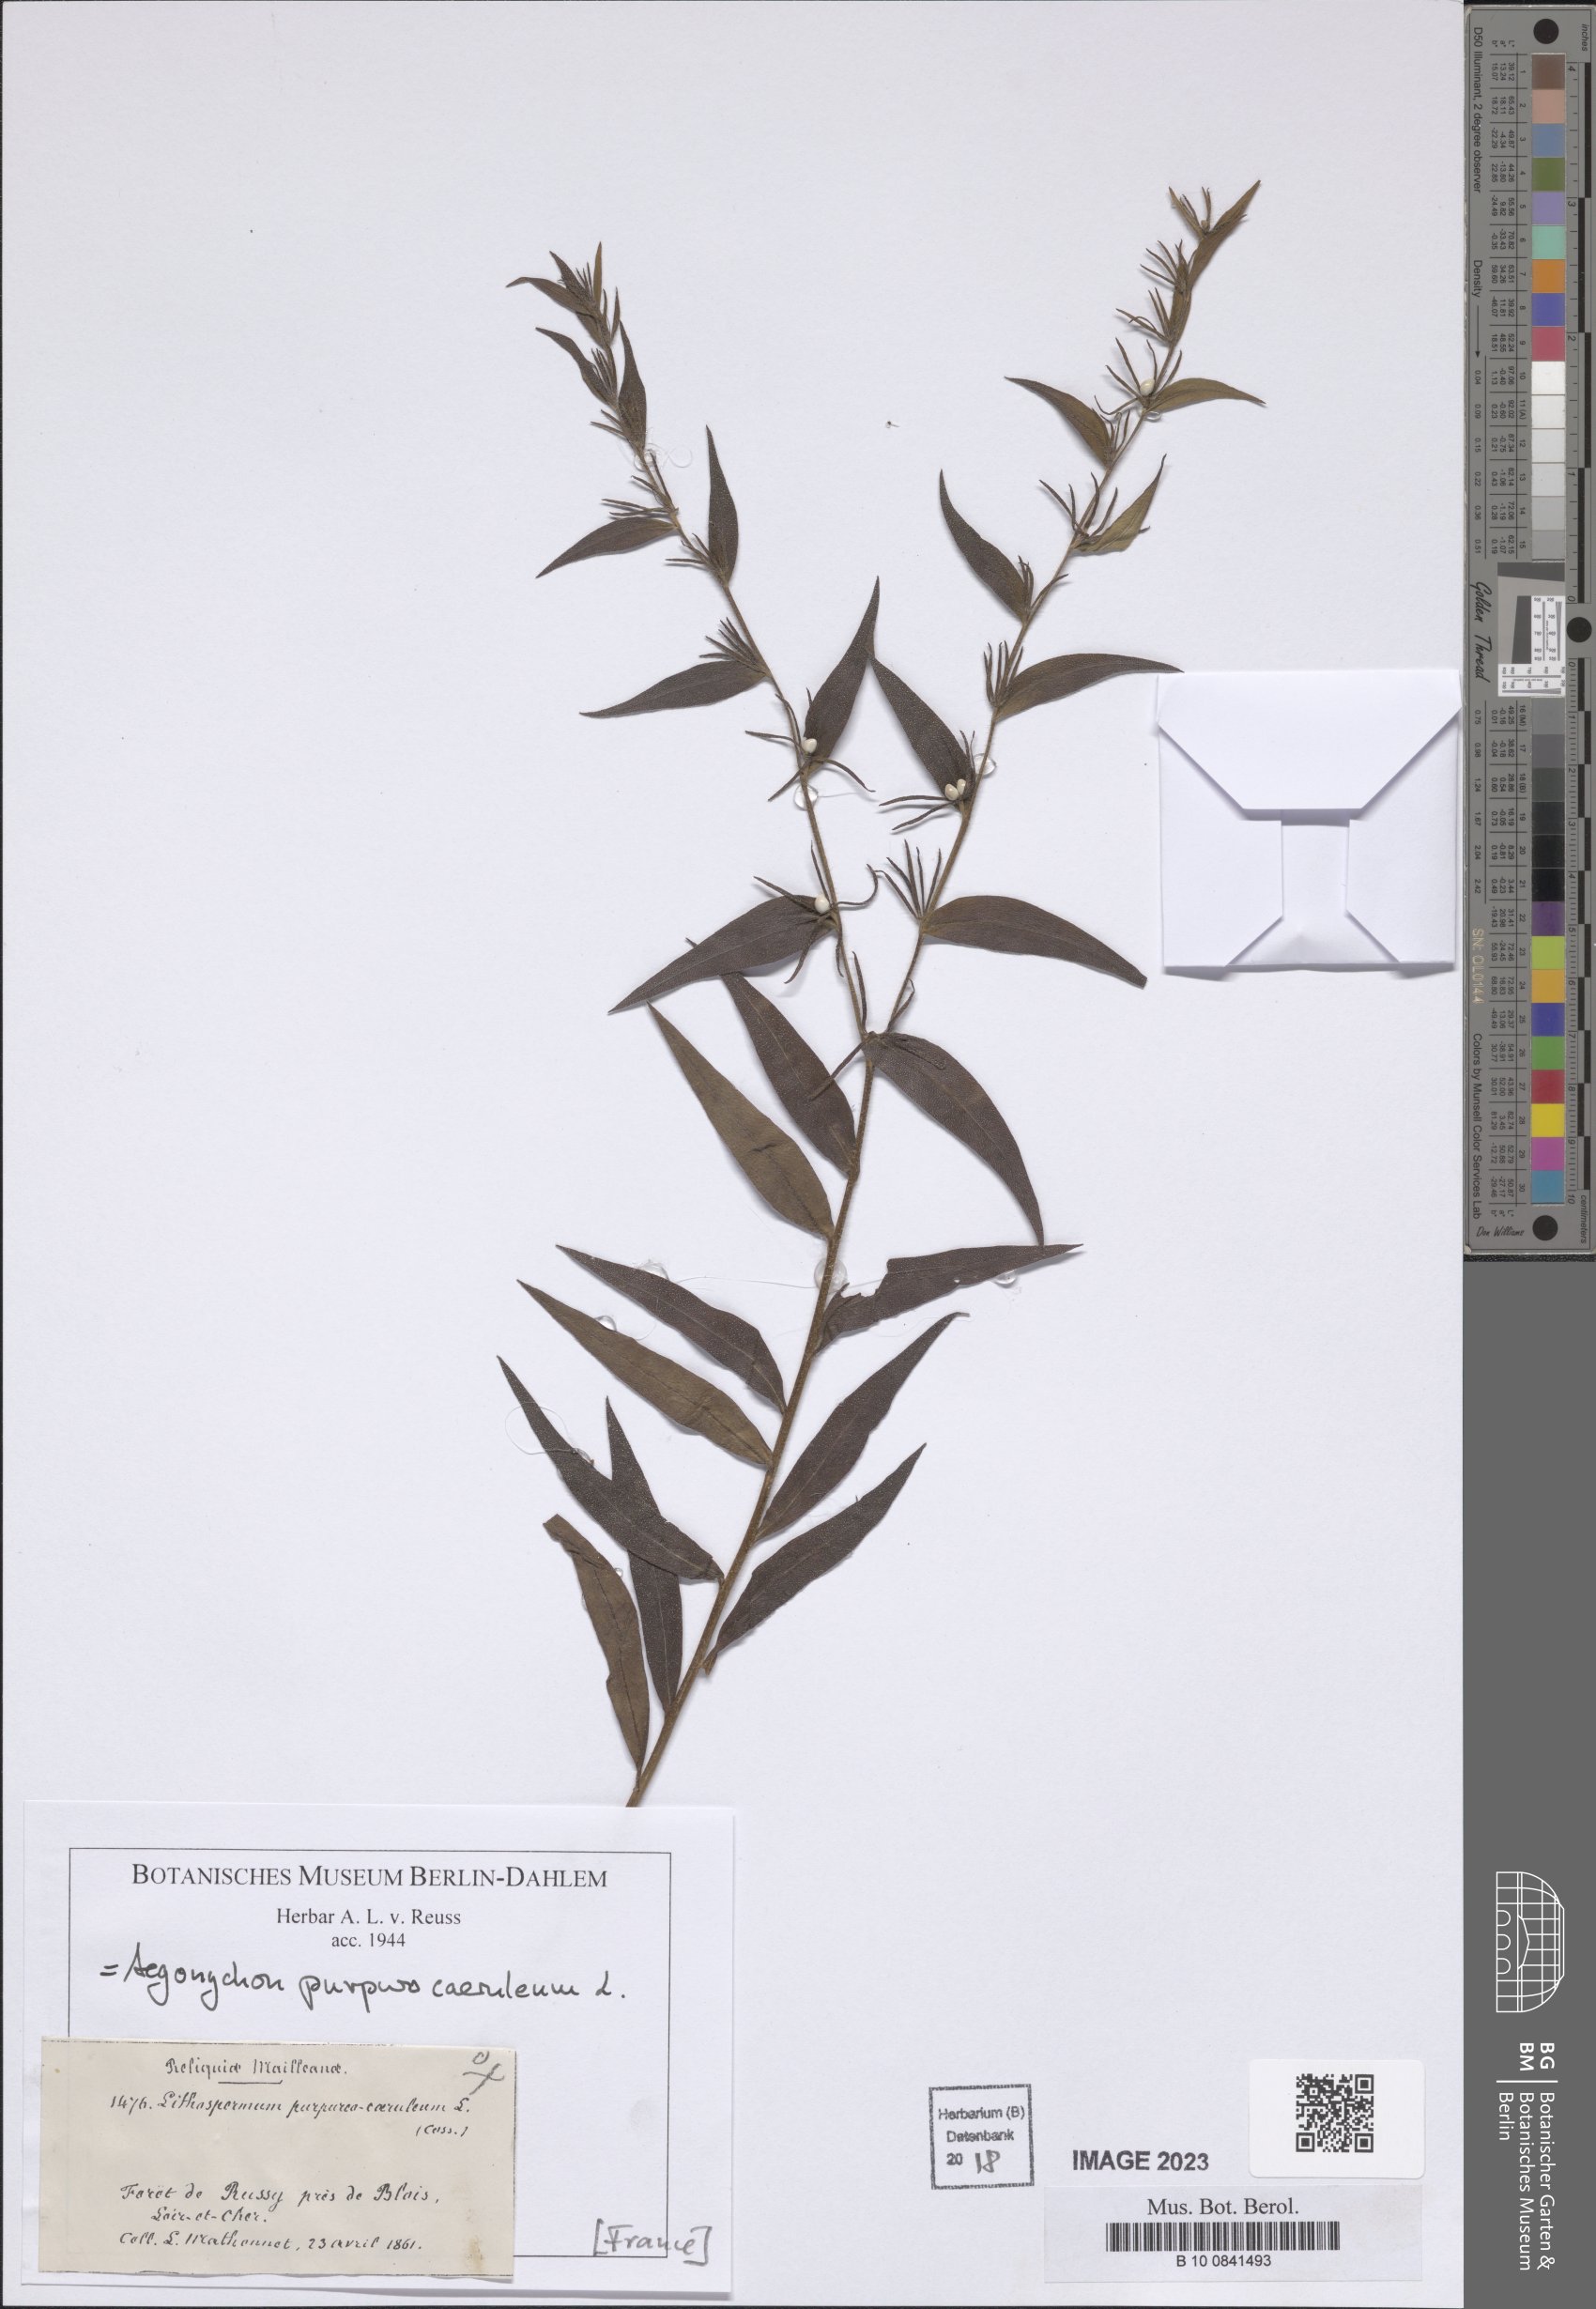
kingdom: Plantae
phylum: Tracheophyta
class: Magnoliopsida
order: Boraginales
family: Boraginaceae
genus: Aegonychon
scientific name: Aegonychon purpurocaeruleum
